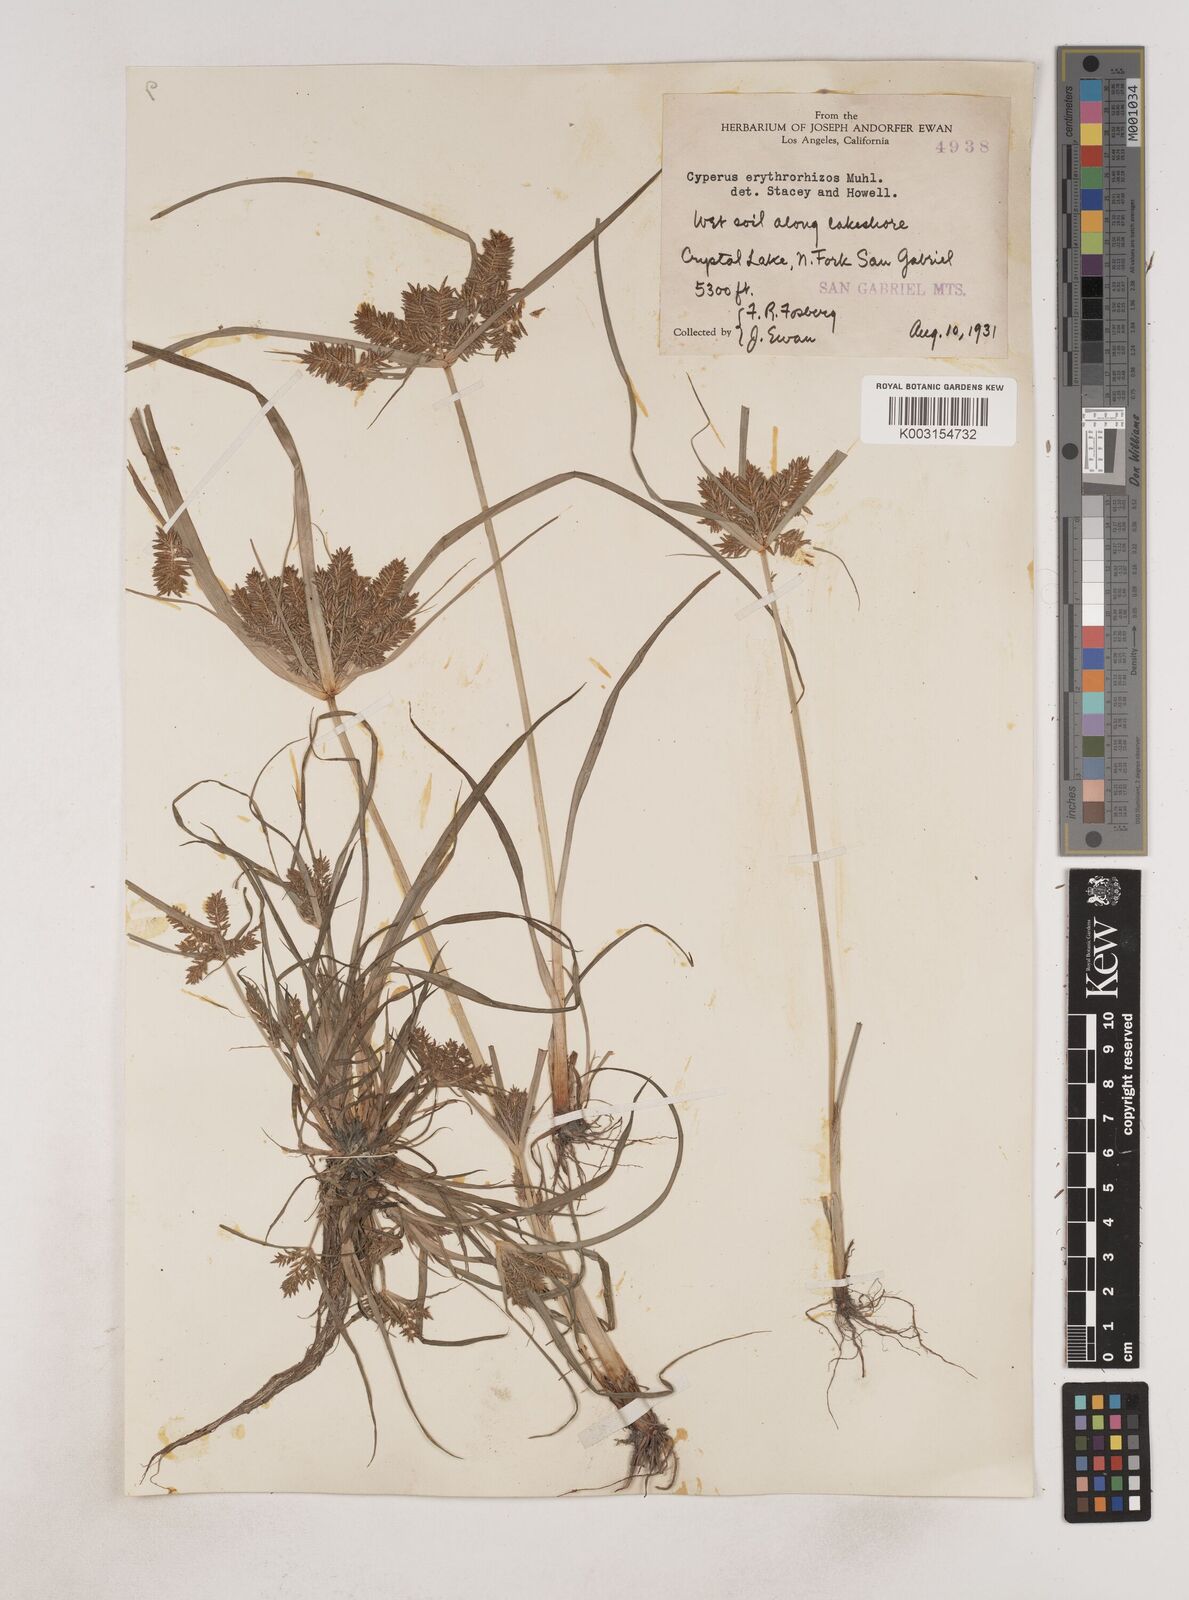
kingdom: Plantae
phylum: Tracheophyta
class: Liliopsida
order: Poales
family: Cyperaceae
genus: Cyperus
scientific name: Cyperus erythrorhizos
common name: Red-root flat sedge
